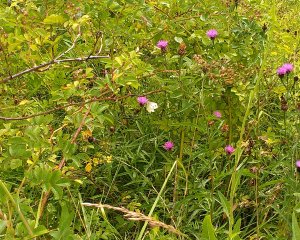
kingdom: Animalia
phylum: Arthropoda
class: Insecta
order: Lepidoptera
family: Pieridae
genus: Pieris
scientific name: Pieris rapae
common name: Cabbage White
